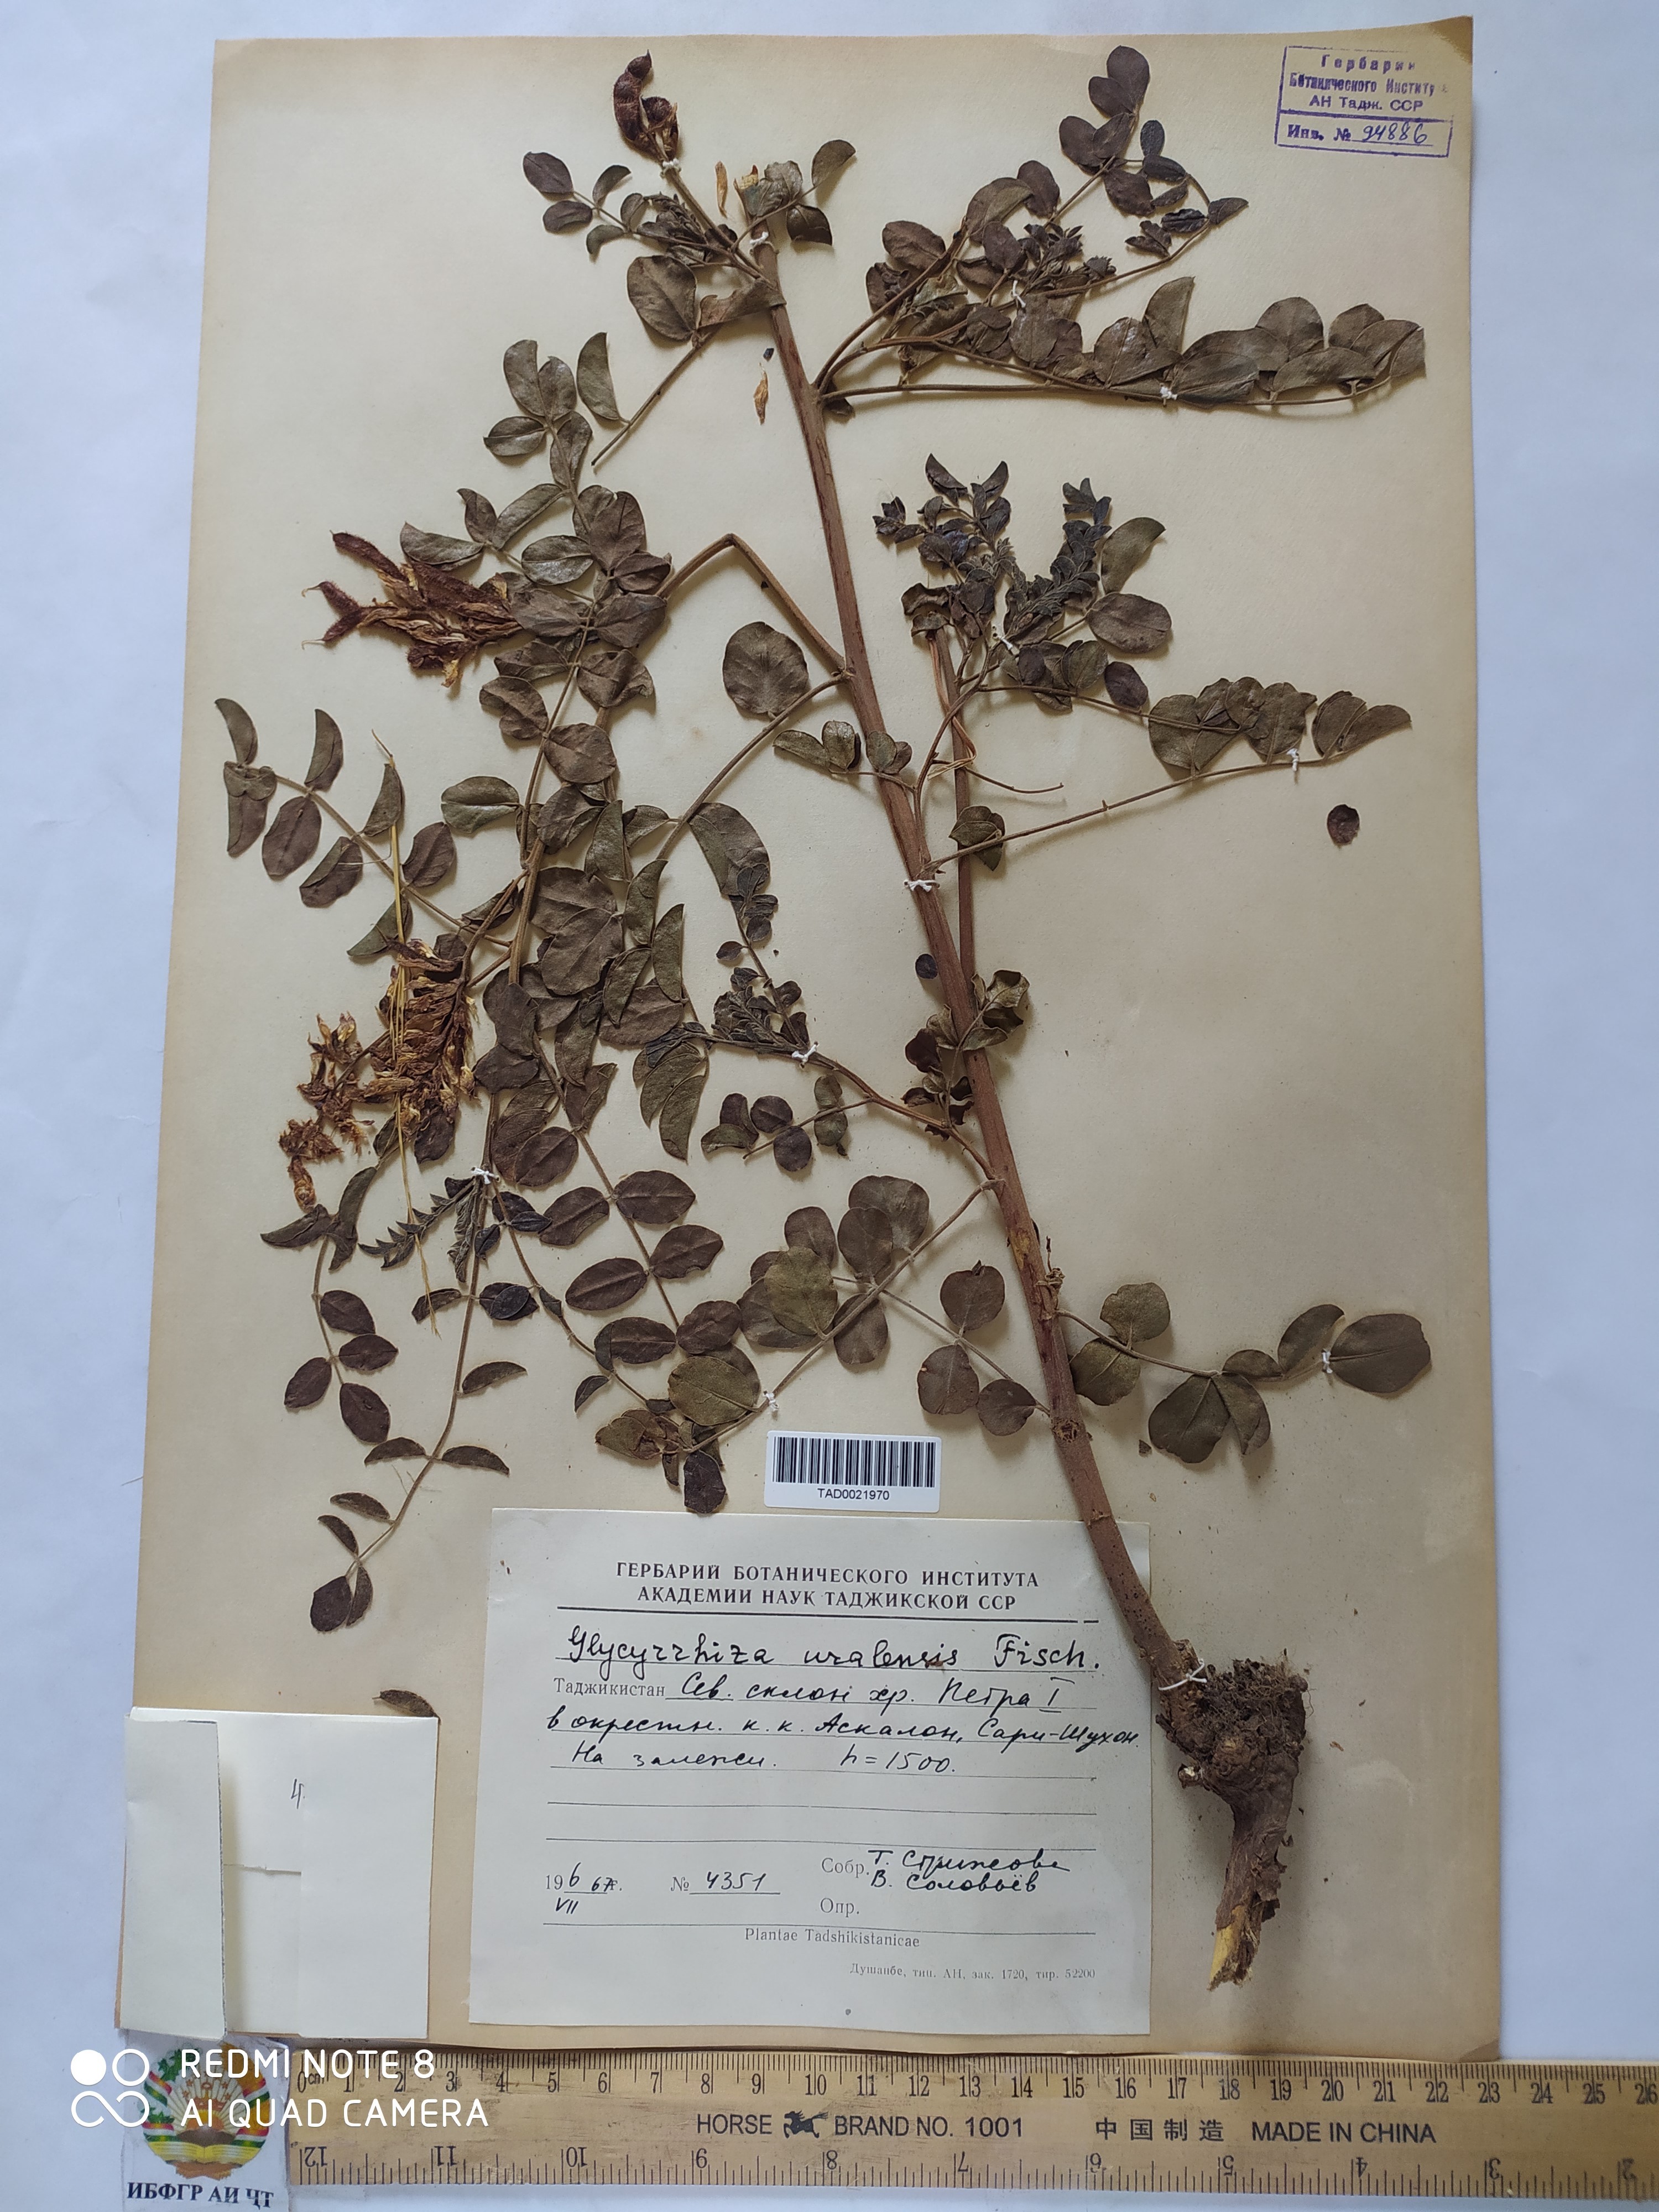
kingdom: Plantae
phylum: Tracheophyta
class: Magnoliopsida
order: Fabales
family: Fabaceae
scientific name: Fabaceae
